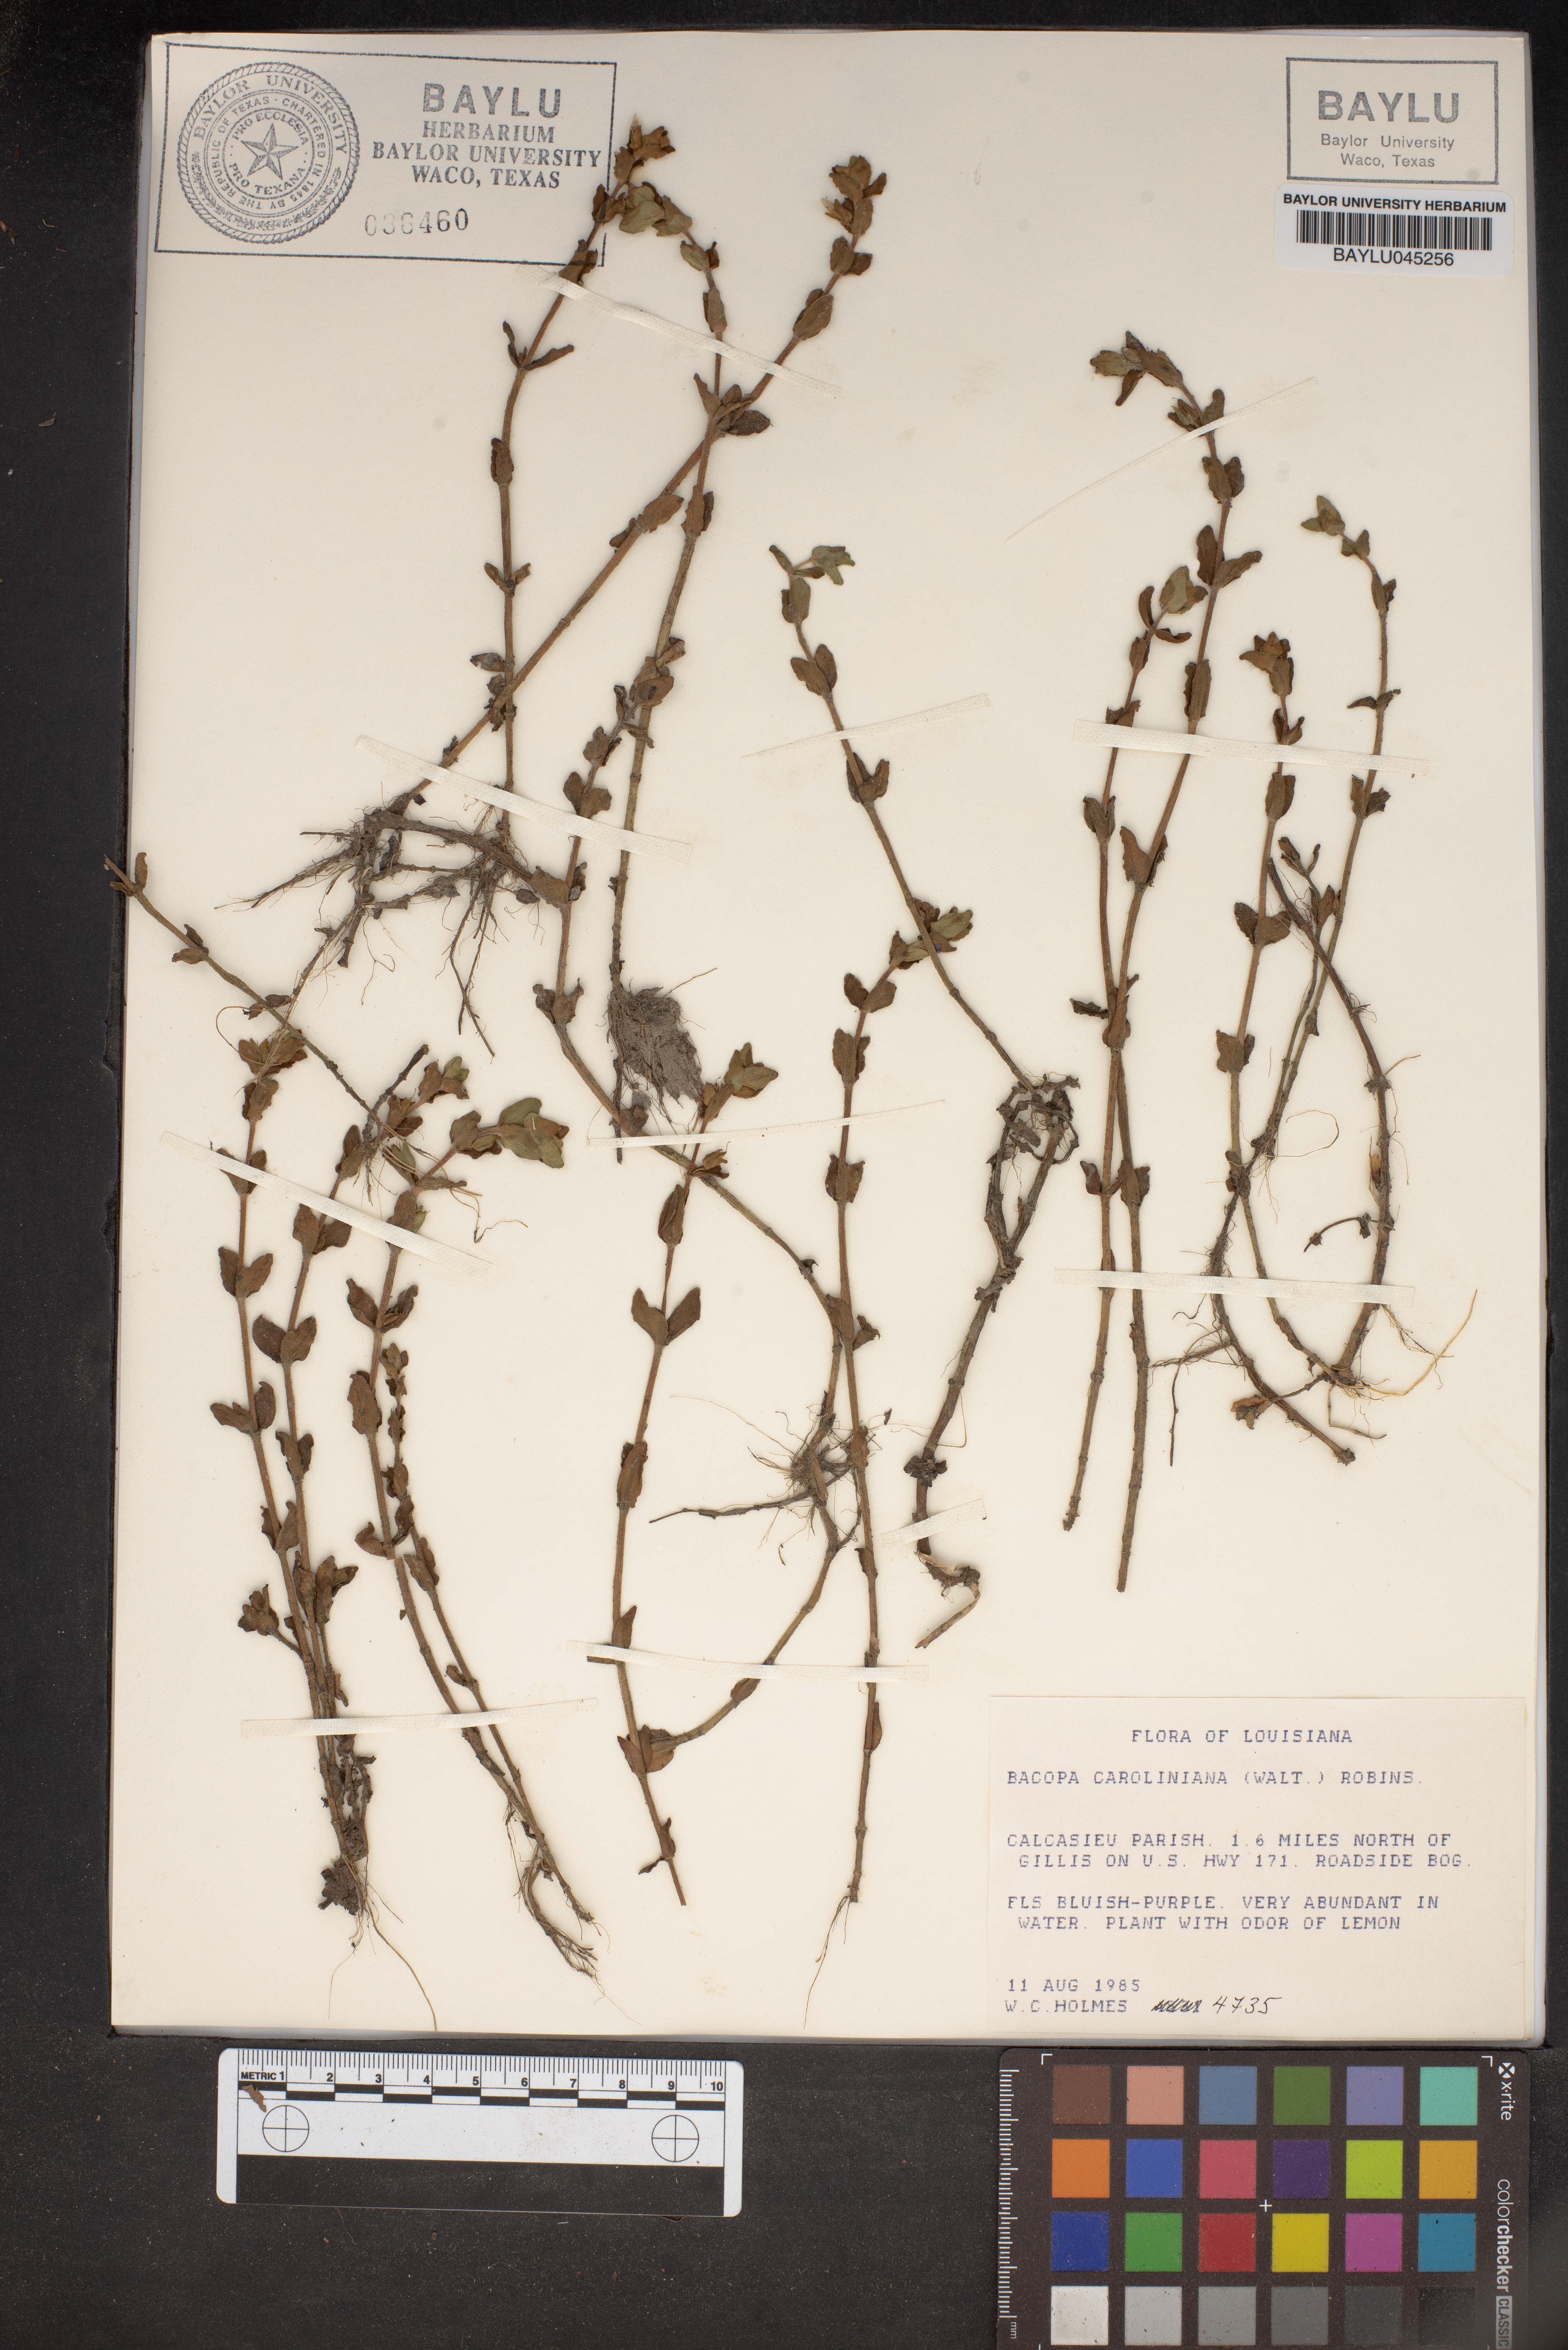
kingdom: Plantae
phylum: Tracheophyta
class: Magnoliopsida
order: Lamiales
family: Plantaginaceae
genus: Bacopa
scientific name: Bacopa caroliniana
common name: Lemon bacopa
